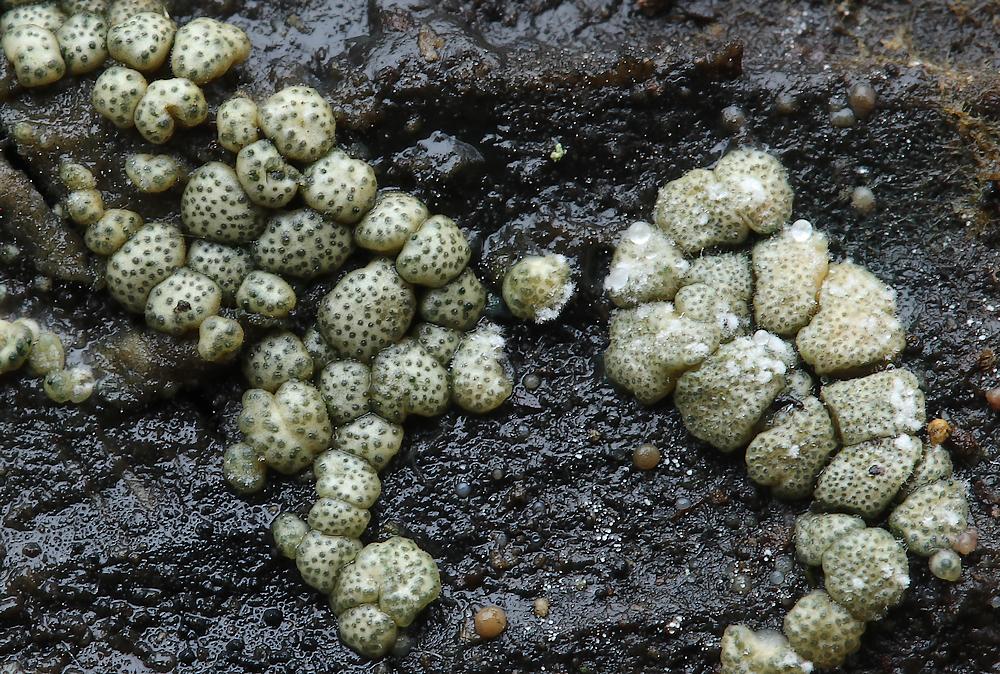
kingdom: Fungi
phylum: Ascomycota
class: Sordariomycetes
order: Hypocreales
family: Hypocreaceae
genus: Trichoderma
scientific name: Trichoderma strictipile
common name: grønprikket kødkerne
